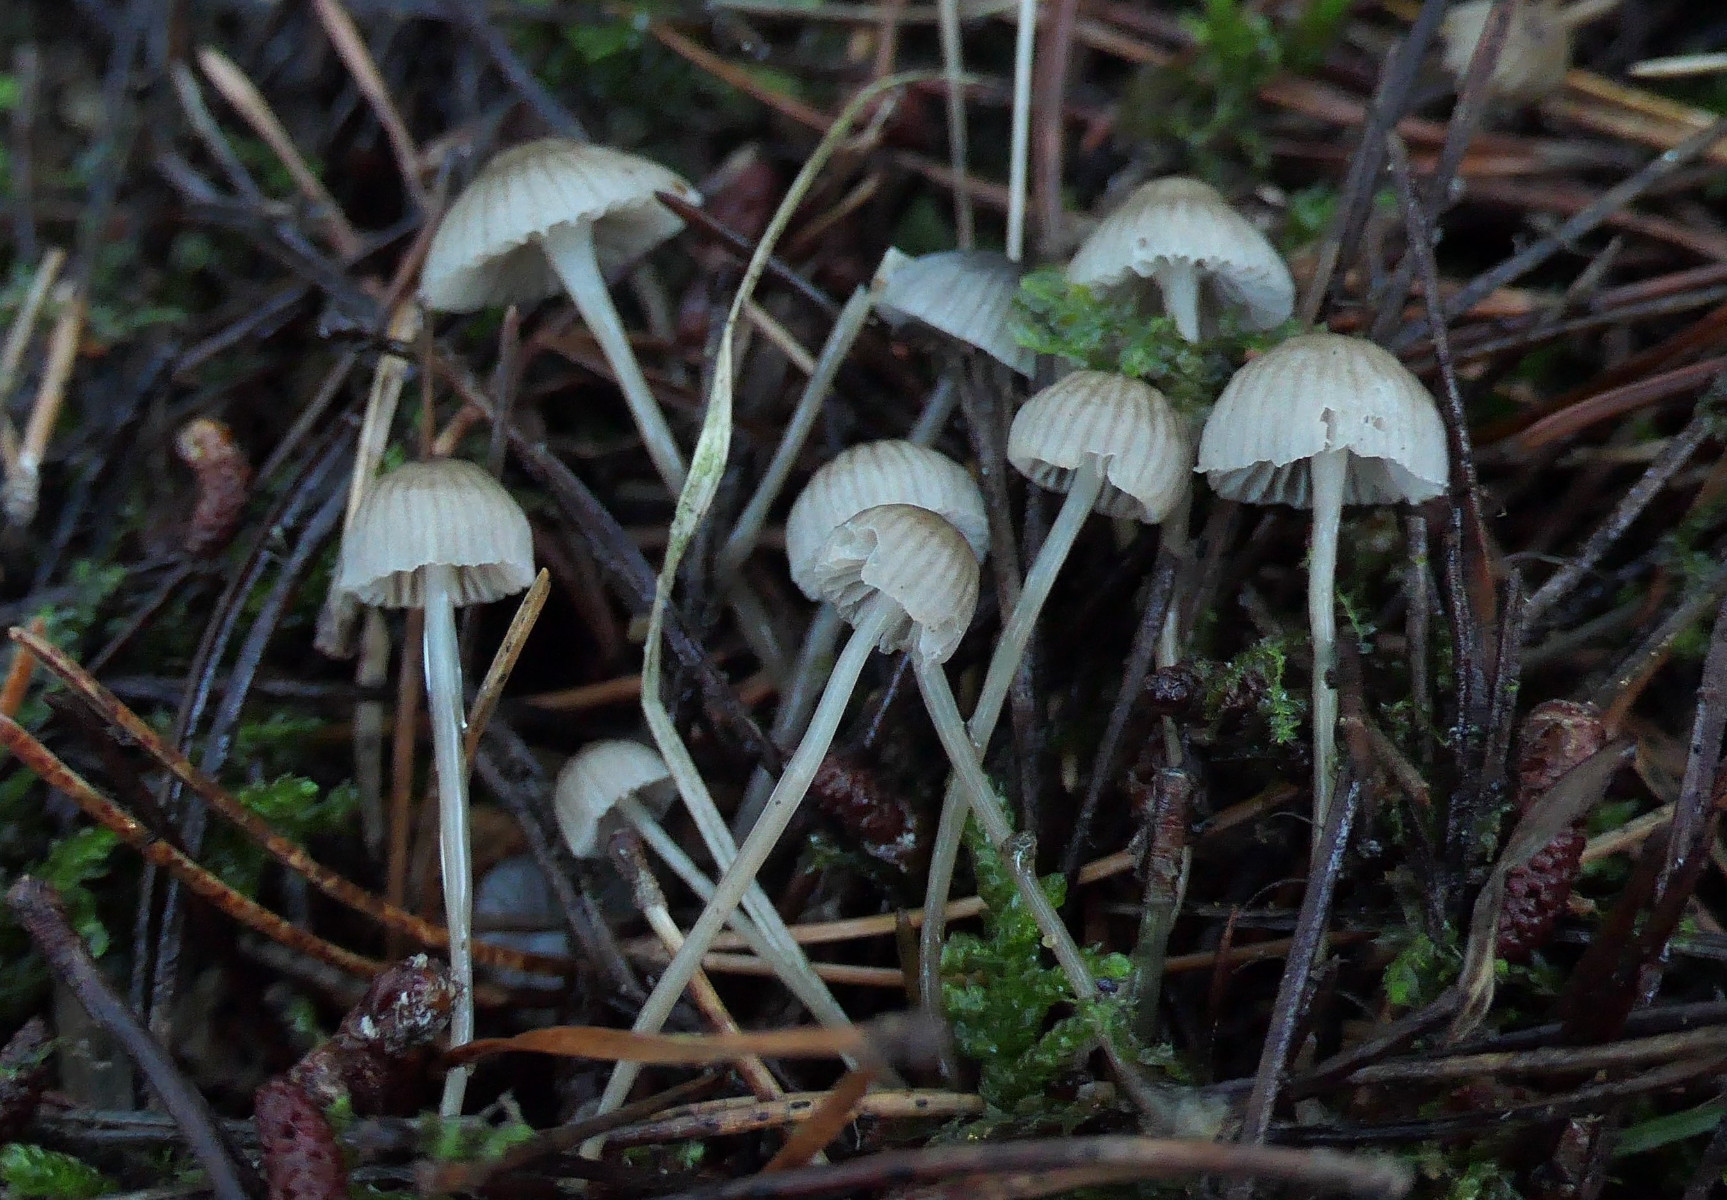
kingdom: Fungi
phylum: Basidiomycota
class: Agaricomycetes
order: Agaricales
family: Mycenaceae
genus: Mycena
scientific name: Mycena clavicularis
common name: fyrre-huesvamp
